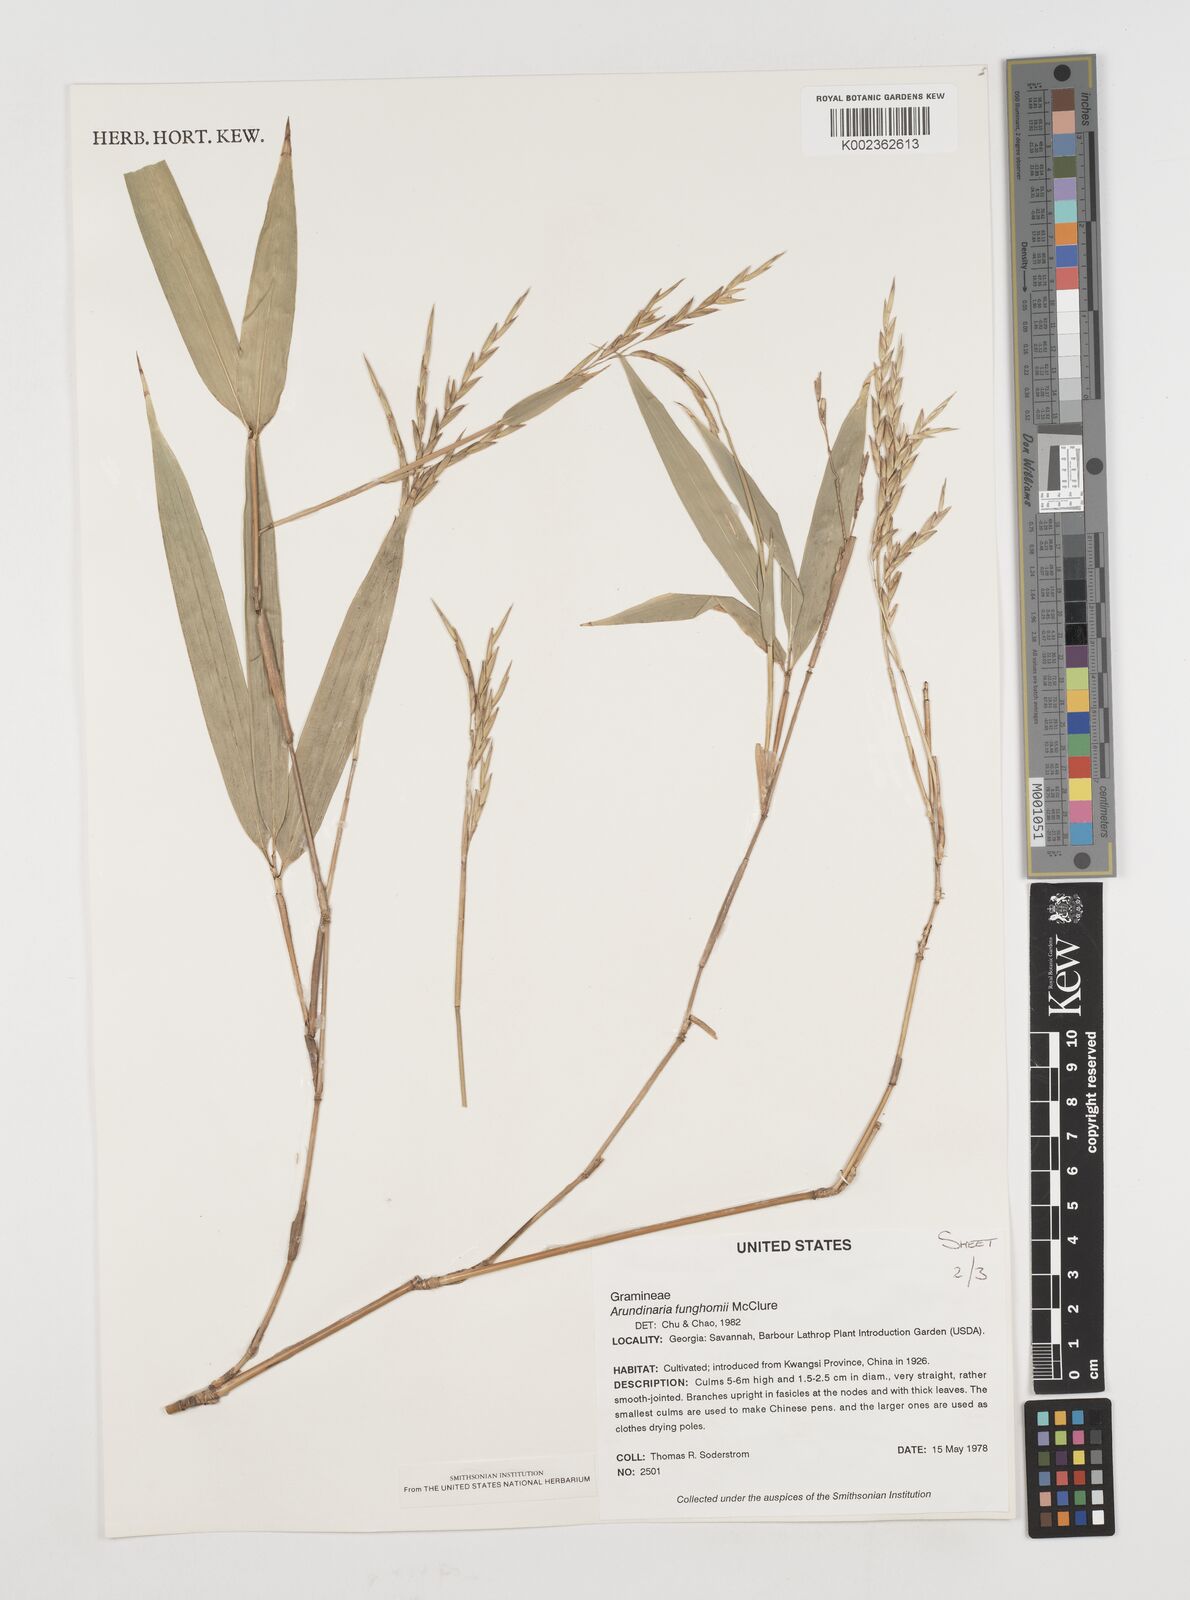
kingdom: Plantae
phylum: Tracheophyta
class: Liliopsida
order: Poales
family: Poaceae
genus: Pseudosasa
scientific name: Pseudosasa
